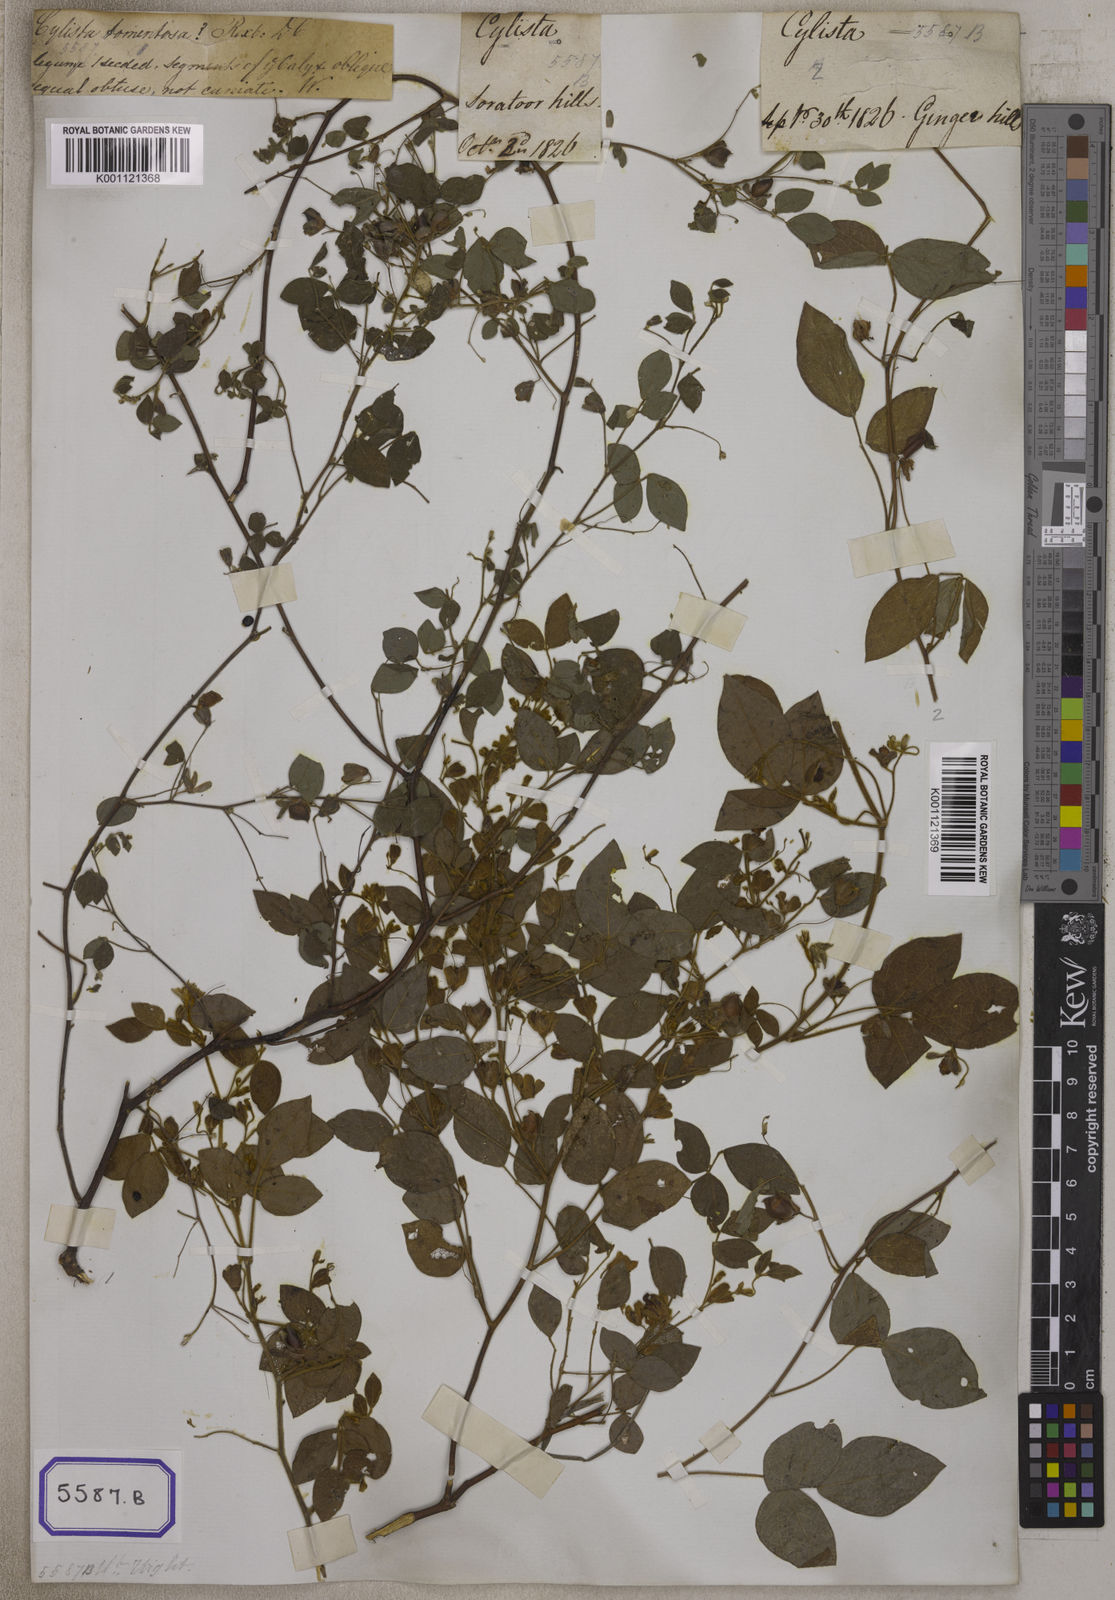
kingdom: Plantae
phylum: Tracheophyta
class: Magnoliopsida
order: Fabales
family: Fabaceae
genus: Rhynchosia
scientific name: Rhynchosia rufescens
